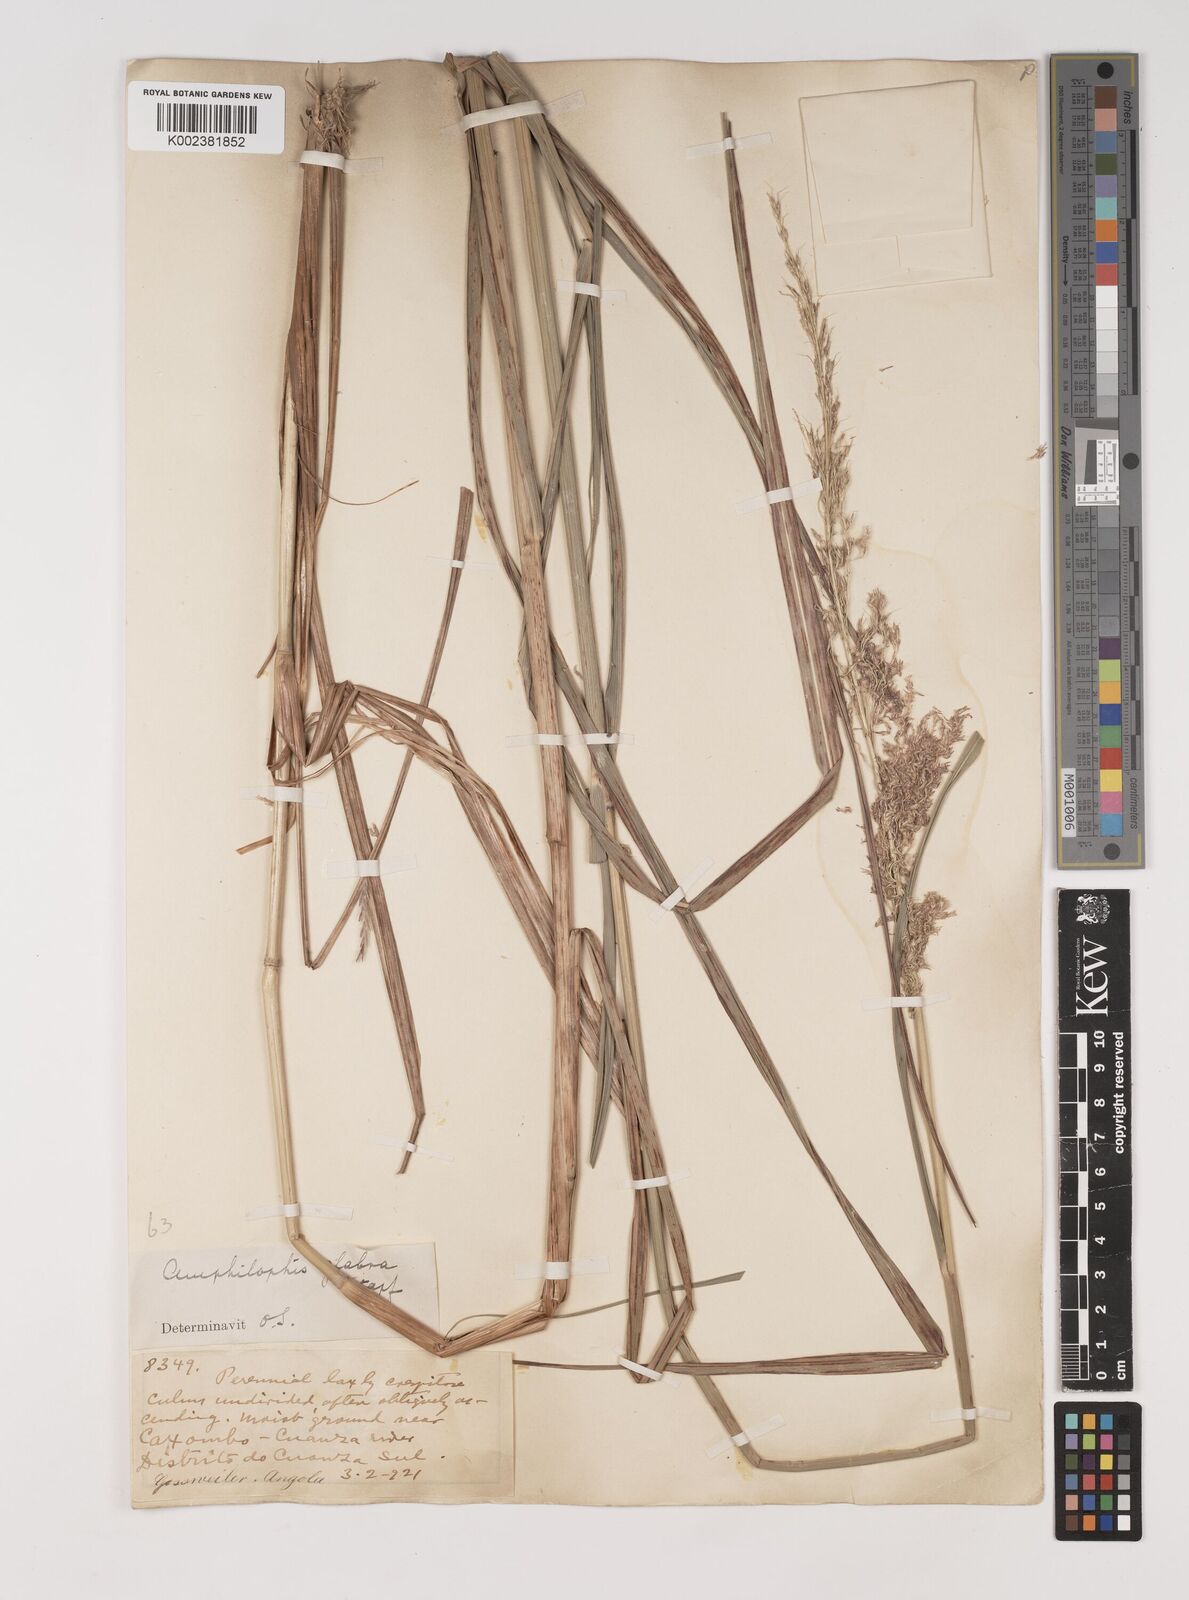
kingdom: Plantae
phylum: Tracheophyta
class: Liliopsida
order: Poales
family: Poaceae
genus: Bothriochloa
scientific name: Bothriochloa bladhii
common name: Caucasian bluestem
